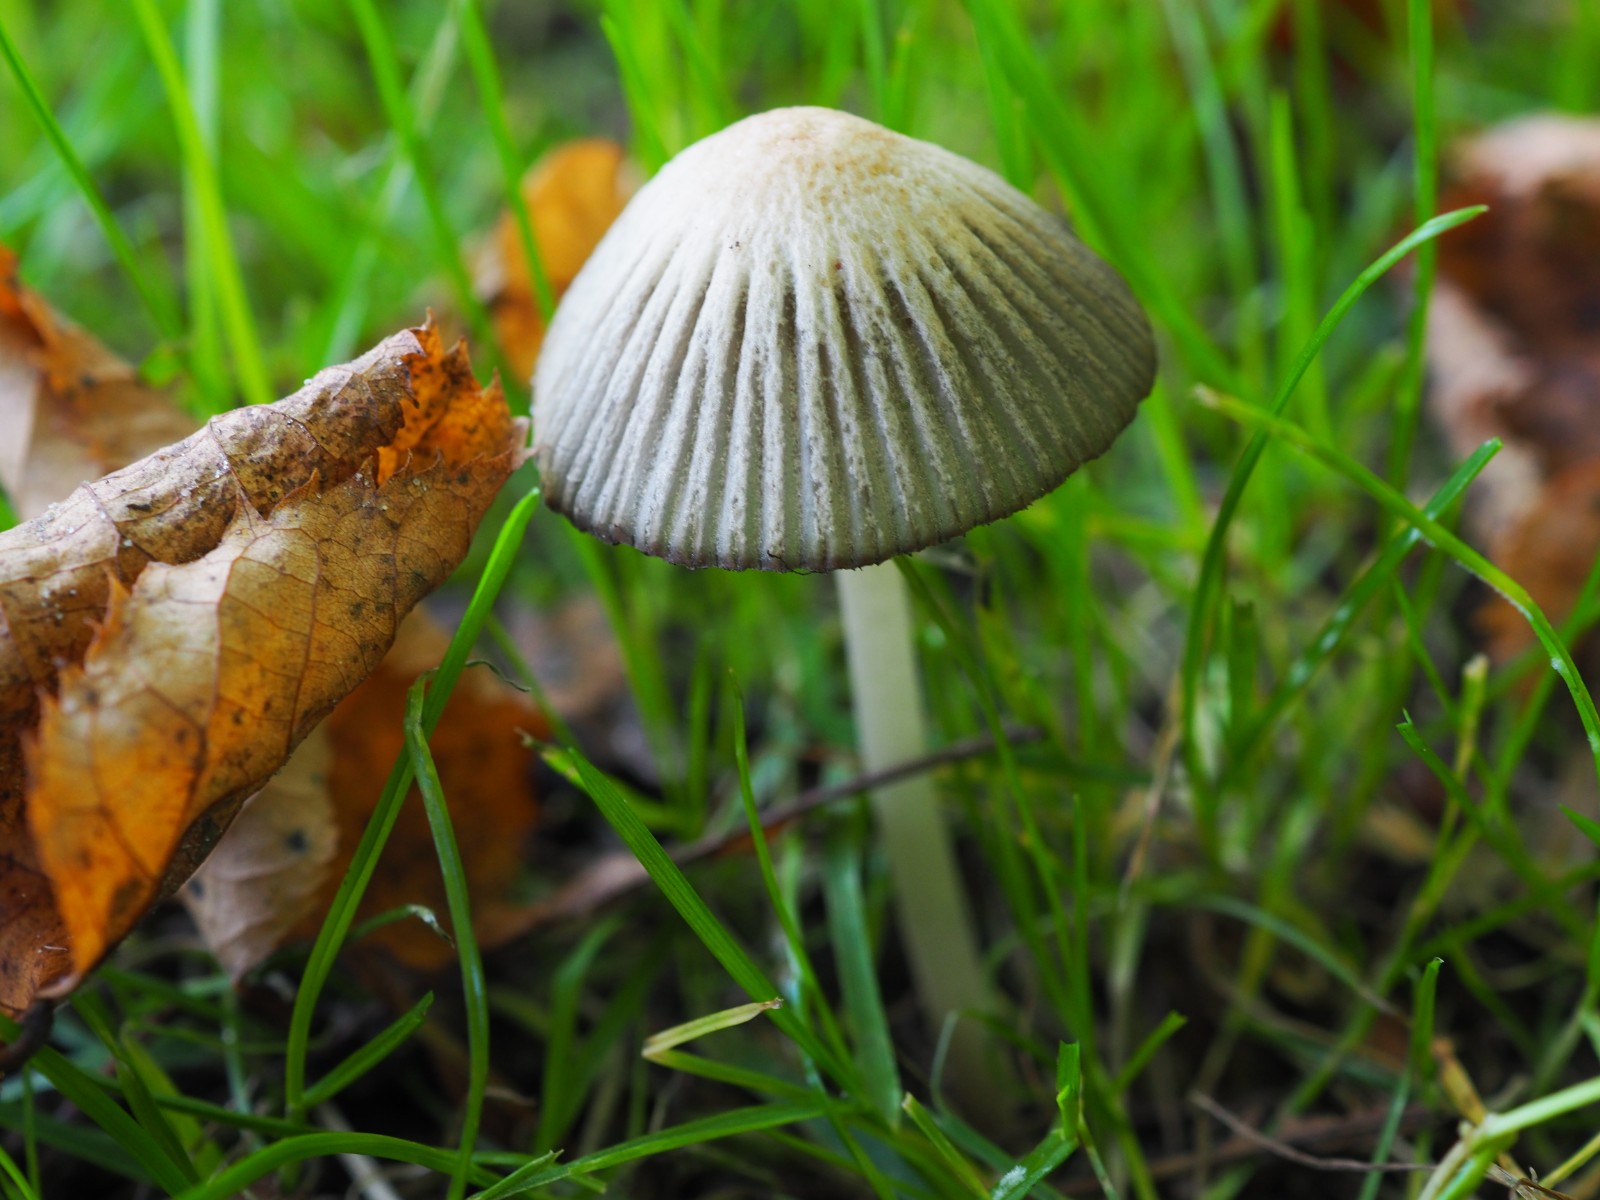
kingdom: Fungi
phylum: Basidiomycota
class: Agaricomycetes
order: Agaricales
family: Psathyrellaceae
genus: Tulosesus
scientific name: Tulosesus
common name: blækhat
